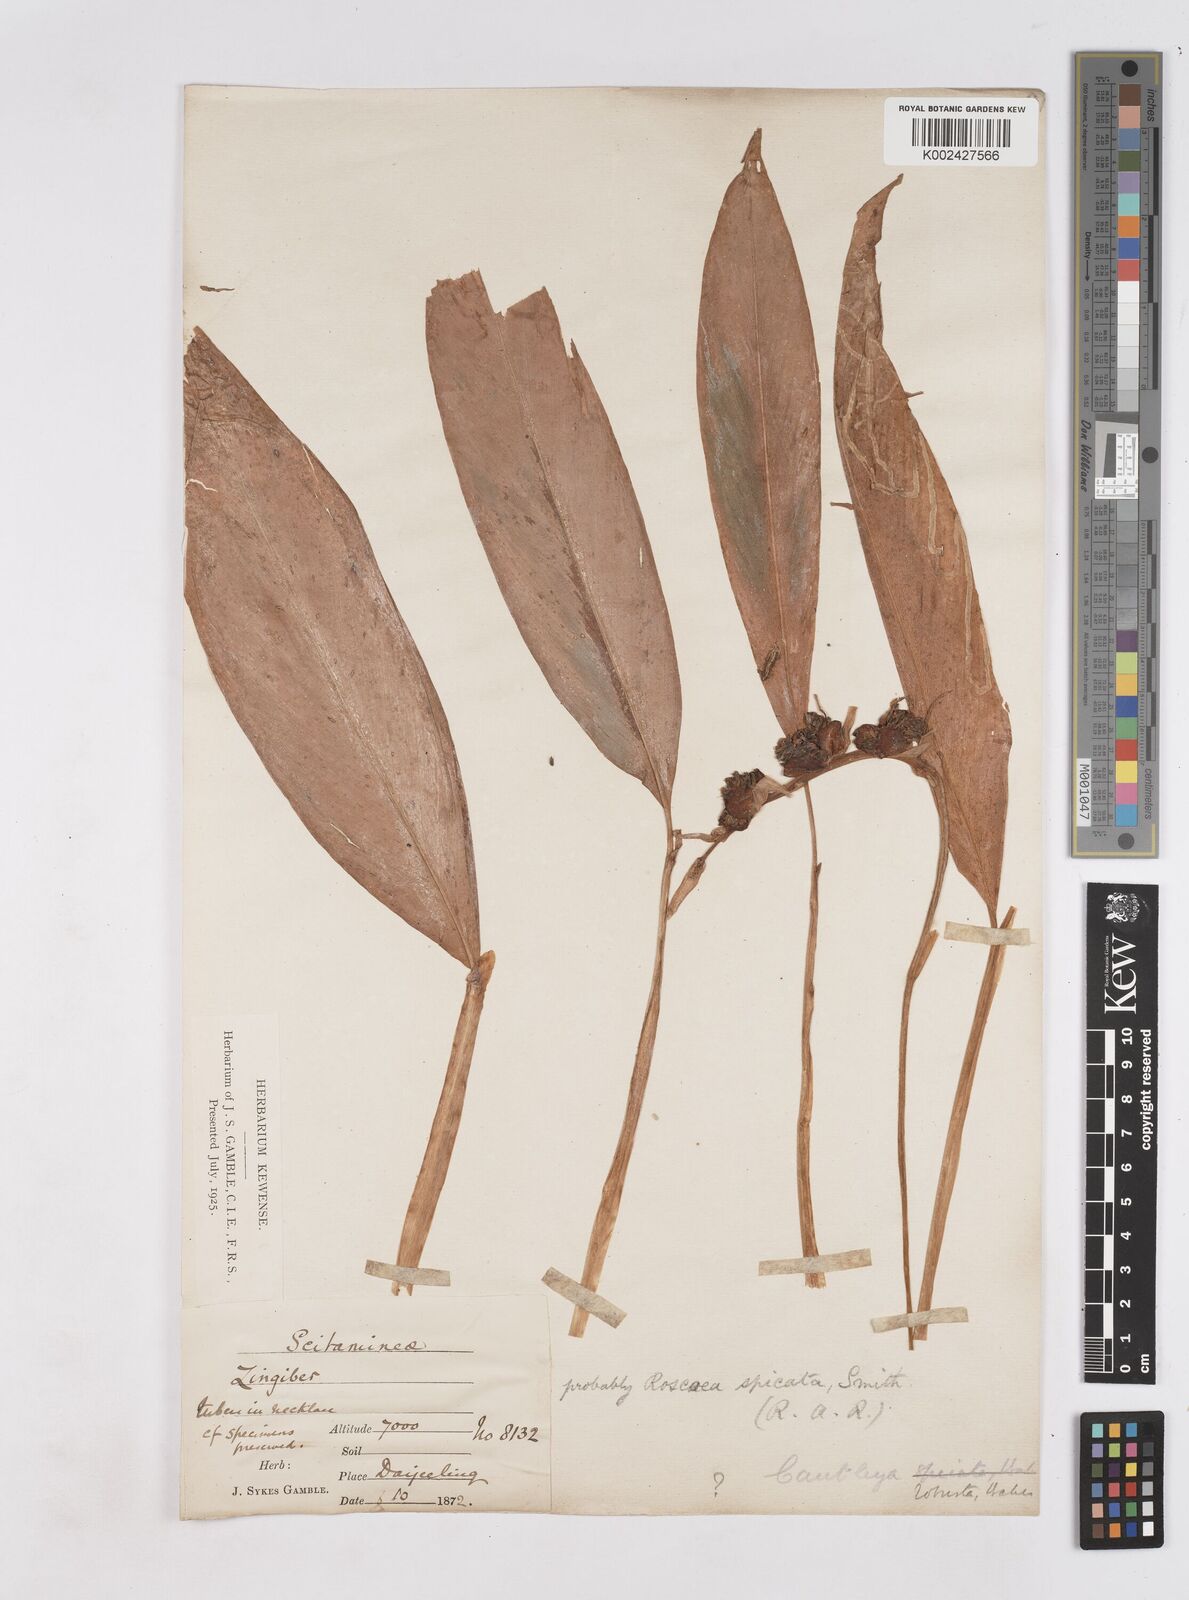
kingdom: Plantae
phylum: Tracheophyta
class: Liliopsida
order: Zingiberales
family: Zingiberaceae
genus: Cautleya
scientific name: Cautleya spicata
